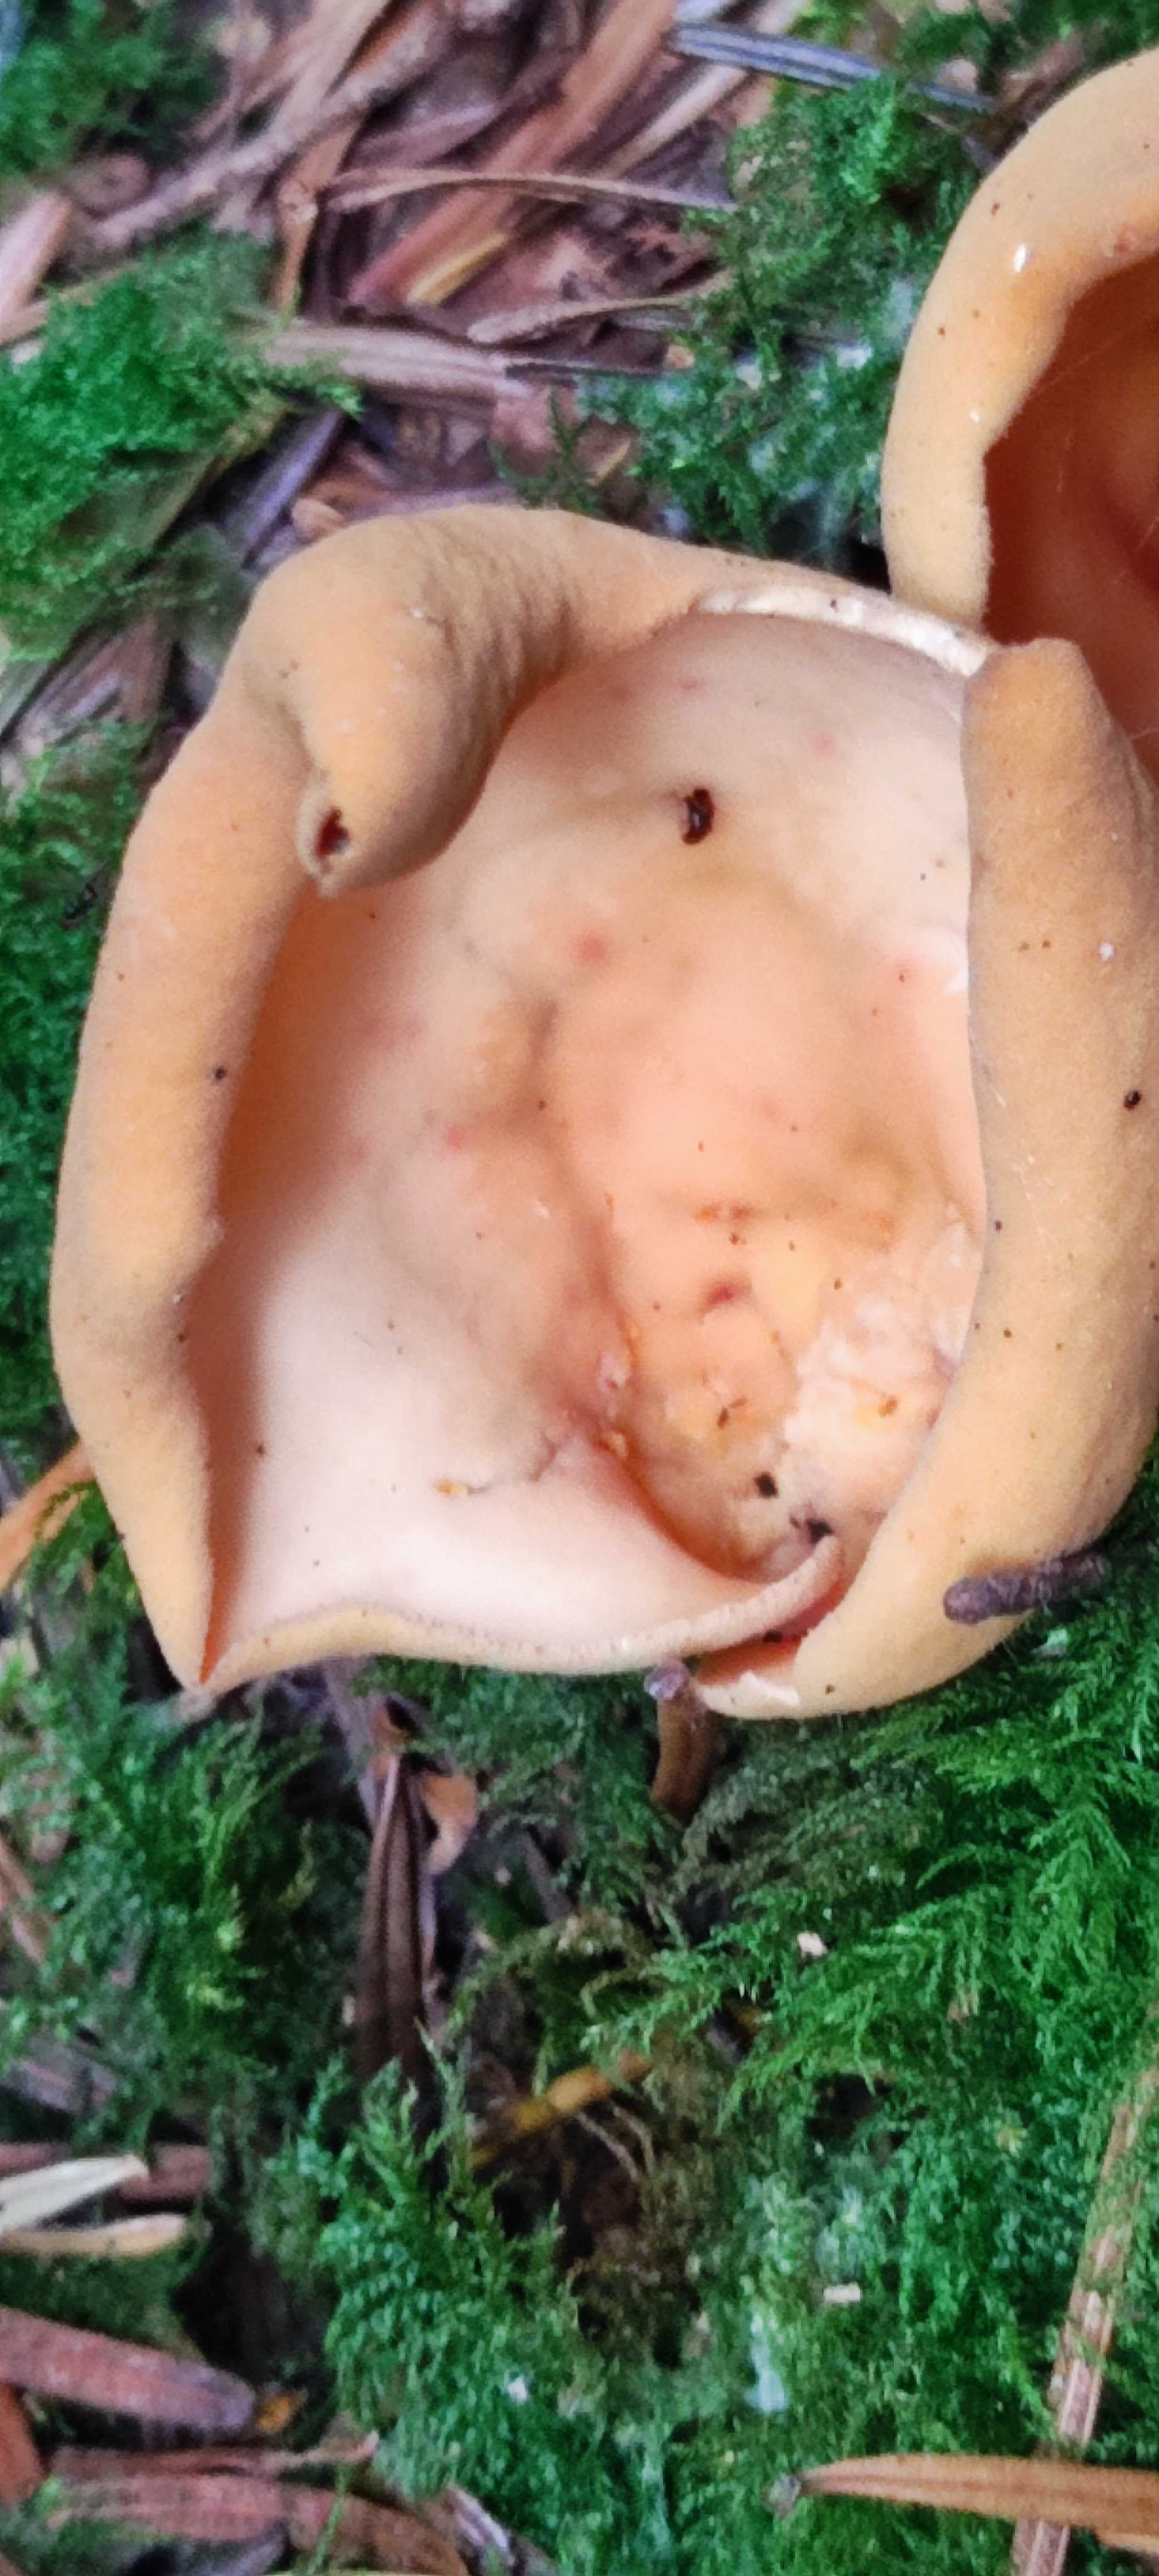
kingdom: Fungi
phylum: Ascomycota
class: Pezizomycetes
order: Pezizales
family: Otideaceae
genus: Otidea
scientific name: Otidea onotica
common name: æsel-ørebæger
